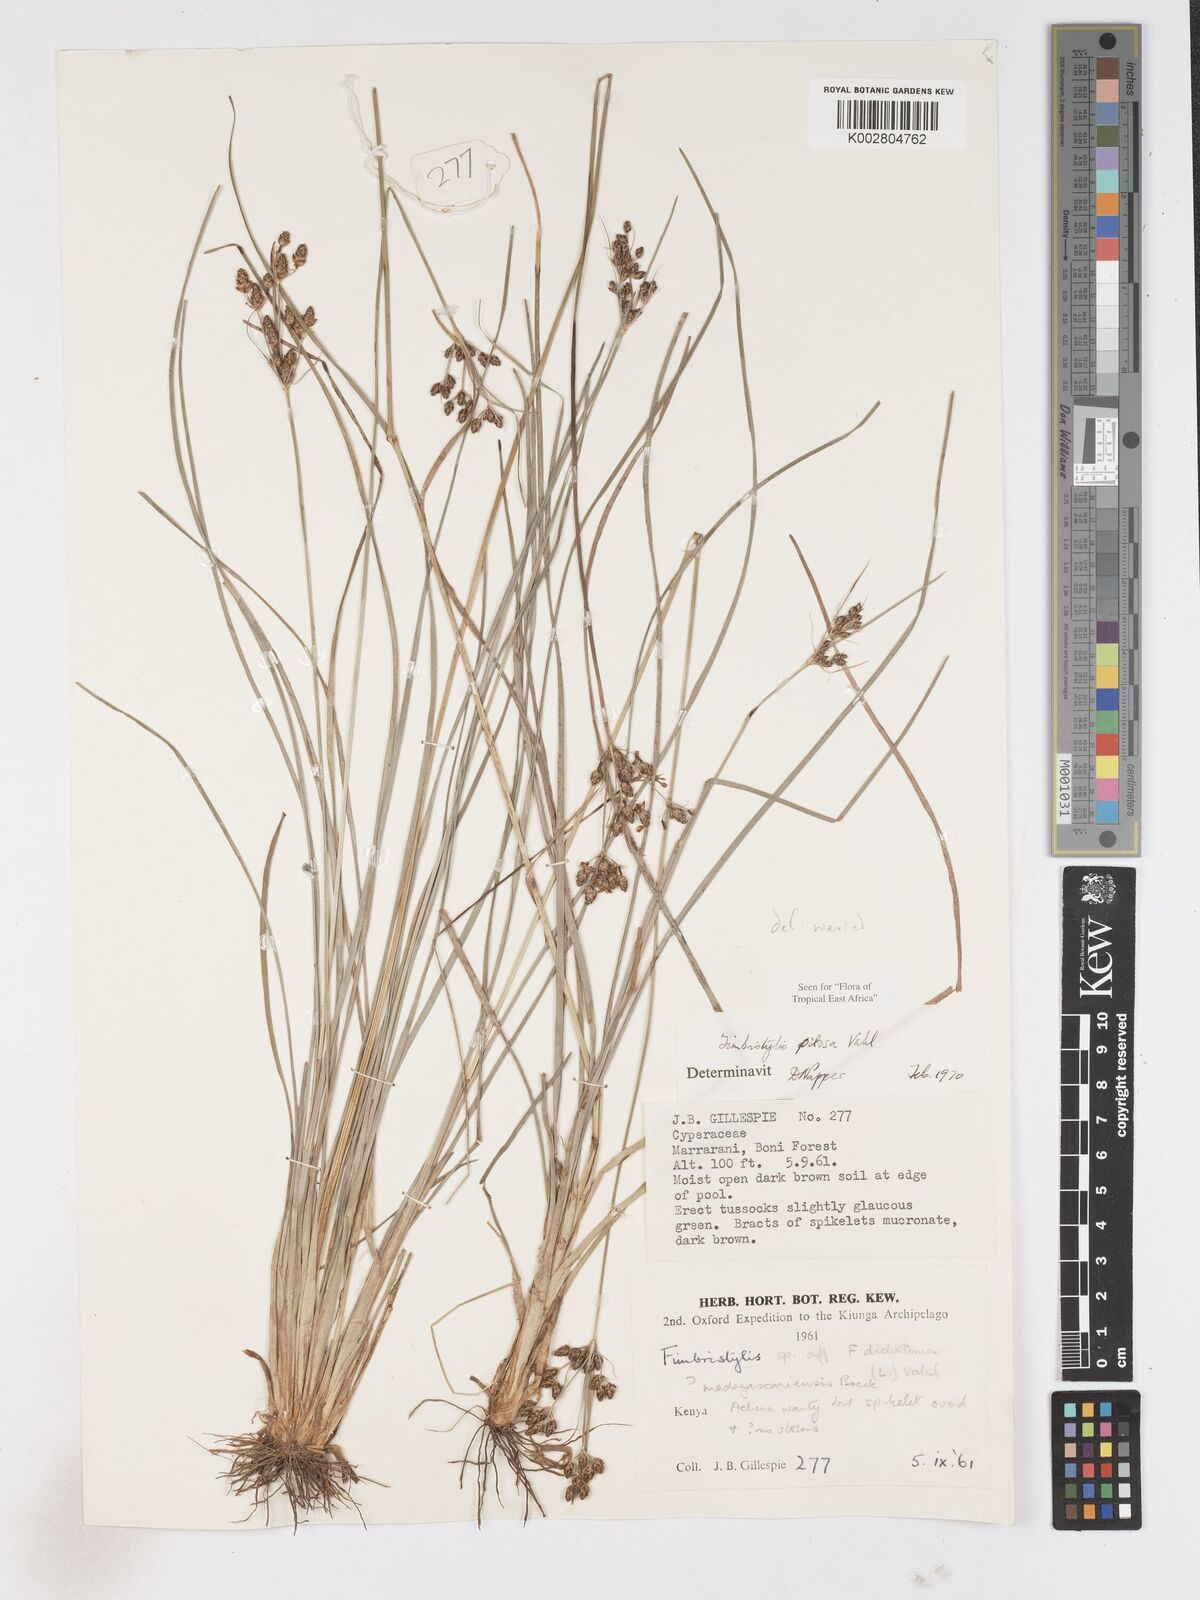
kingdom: Plantae
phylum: Tracheophyta
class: Liliopsida
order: Poales
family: Cyperaceae
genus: Fimbristylis
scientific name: Fimbristylis pilosa
